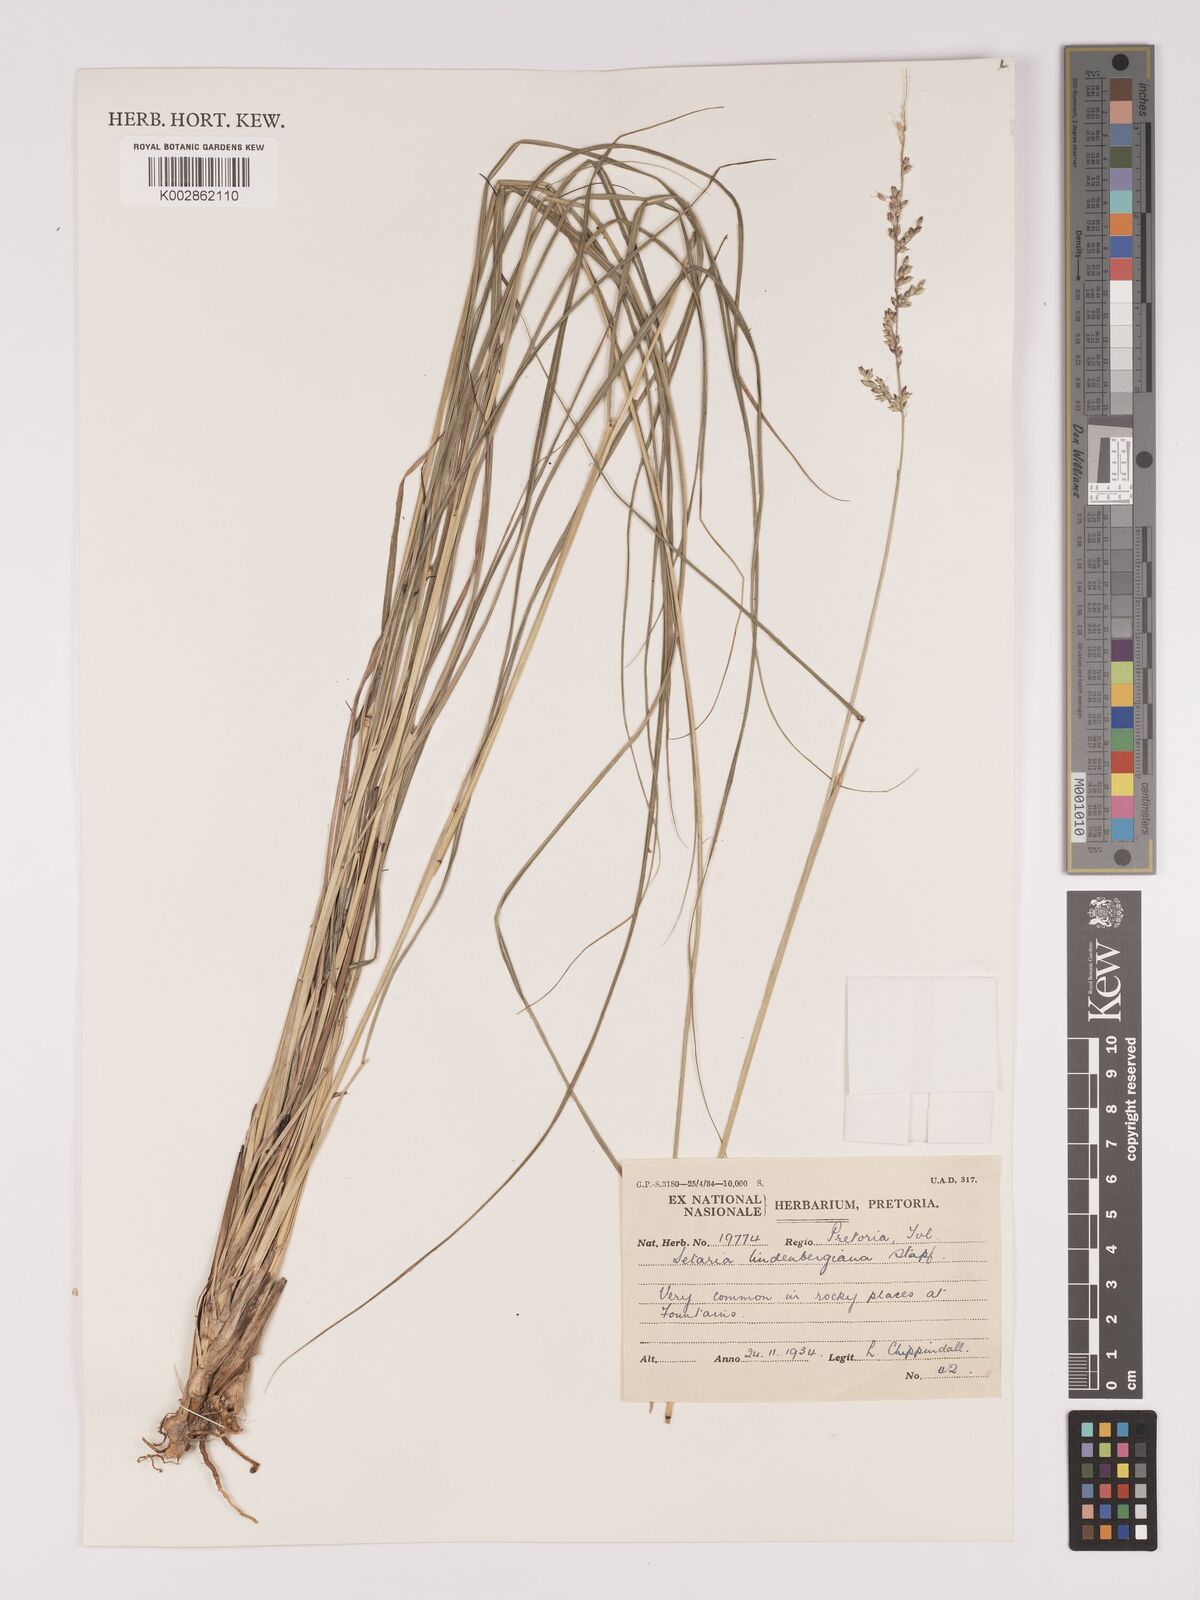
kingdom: Plantae
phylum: Tracheophyta
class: Liliopsida
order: Poales
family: Poaceae
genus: Setaria
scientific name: Setaria lindenbergiana
